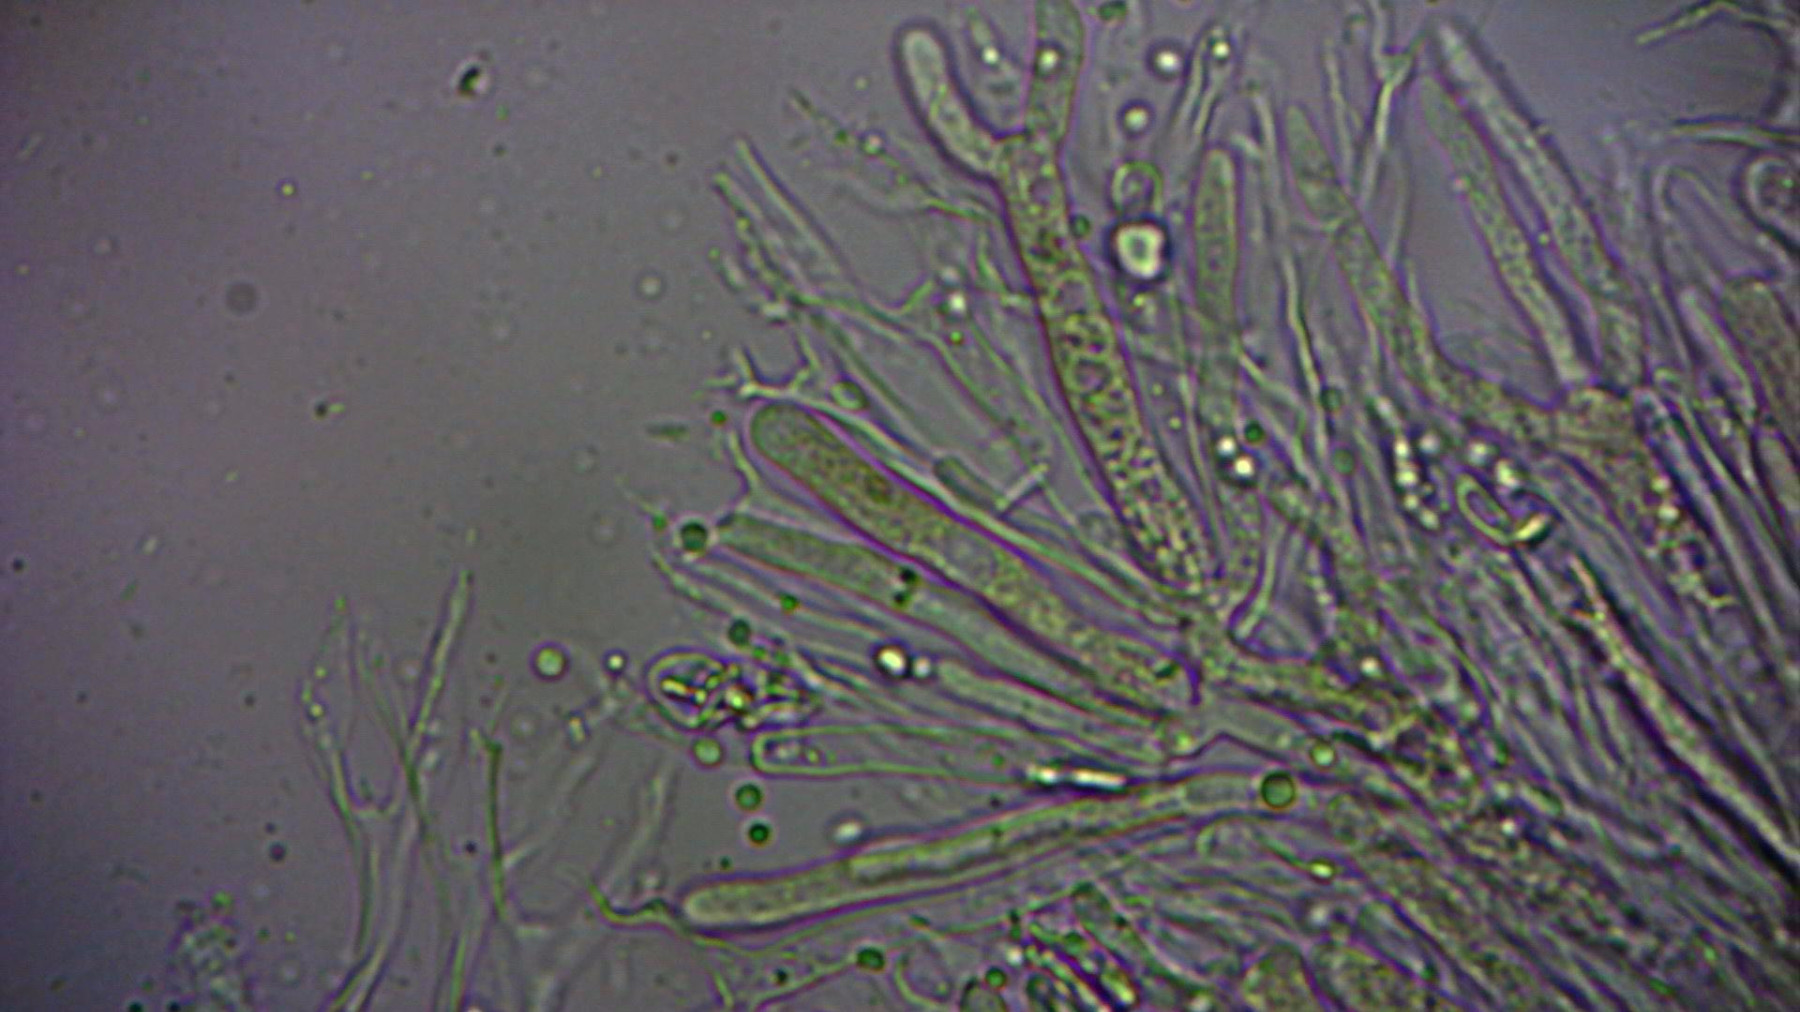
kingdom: Fungi
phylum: Basidiomycota
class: Dacrymycetes
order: Dacrymycetales
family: Dacrymycetaceae
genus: Dacrymyces
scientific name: Dacrymyces lacrymalis
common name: rynket tåresvamp
